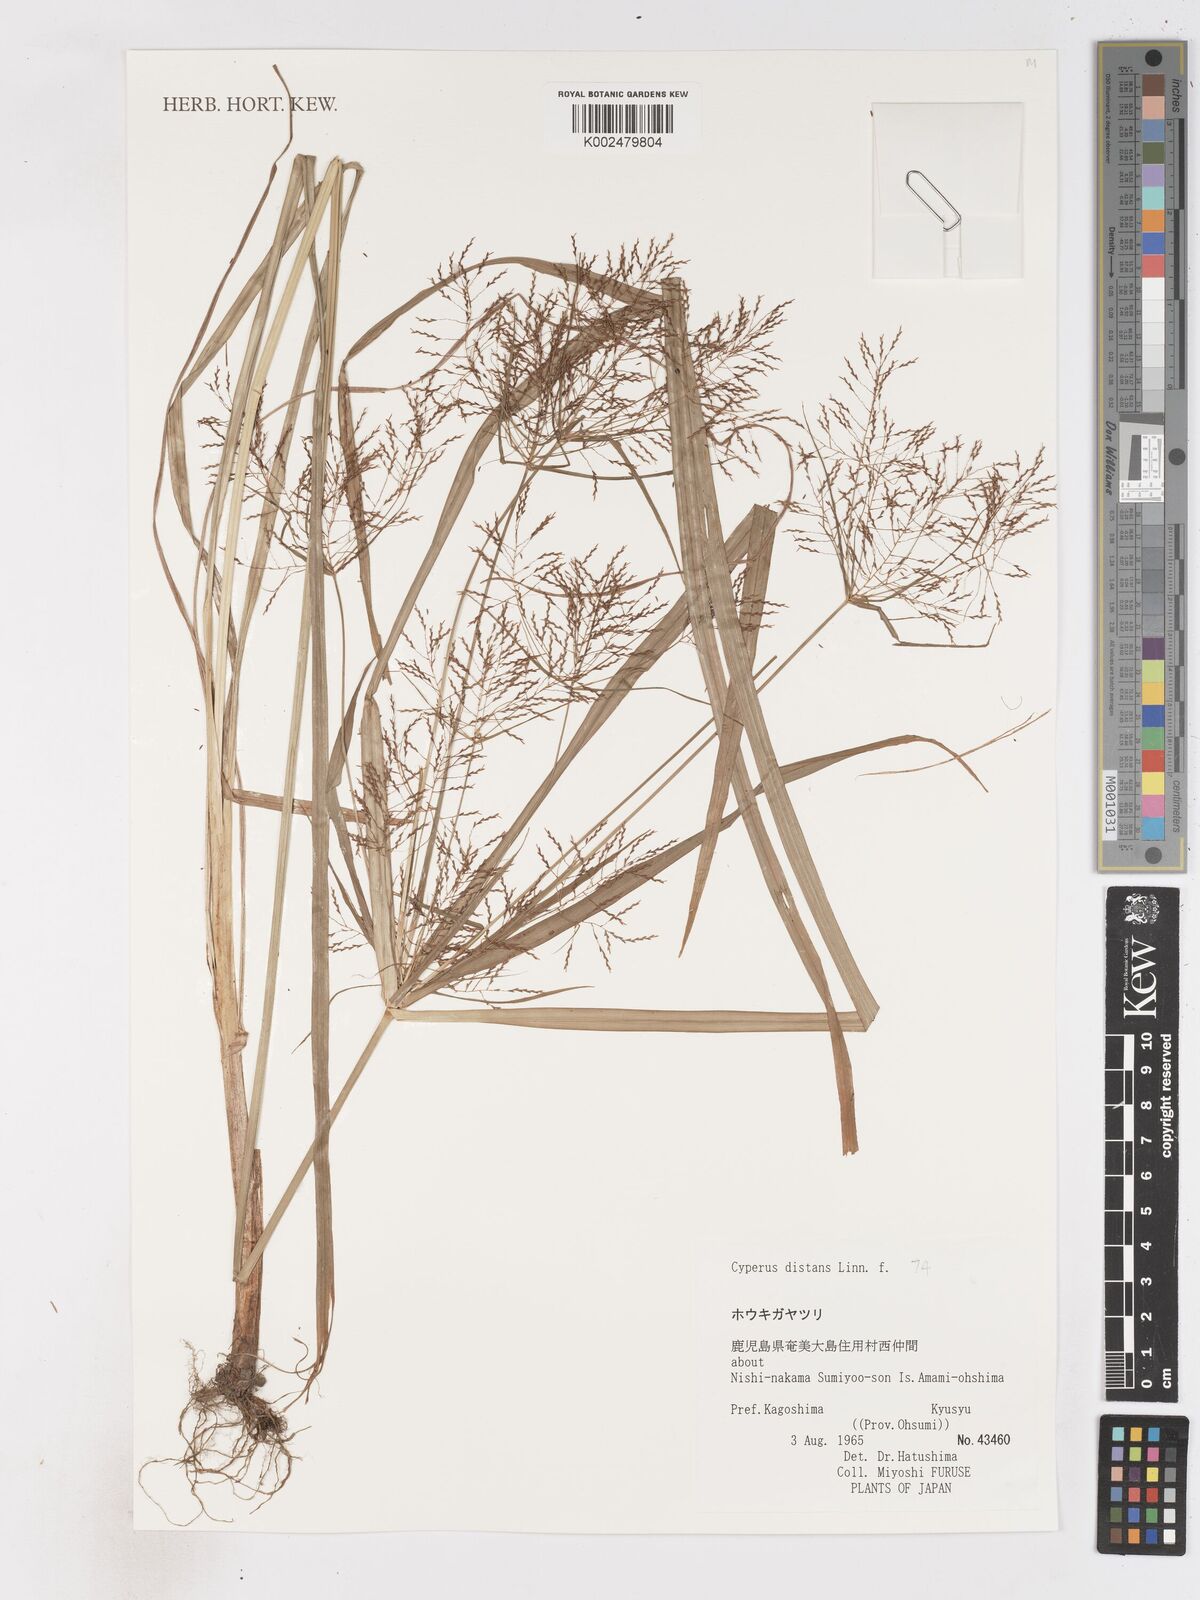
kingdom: Plantae
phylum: Tracheophyta
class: Liliopsida
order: Poales
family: Cyperaceae
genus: Cyperus
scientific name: Cyperus distans
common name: Slender cyperus
